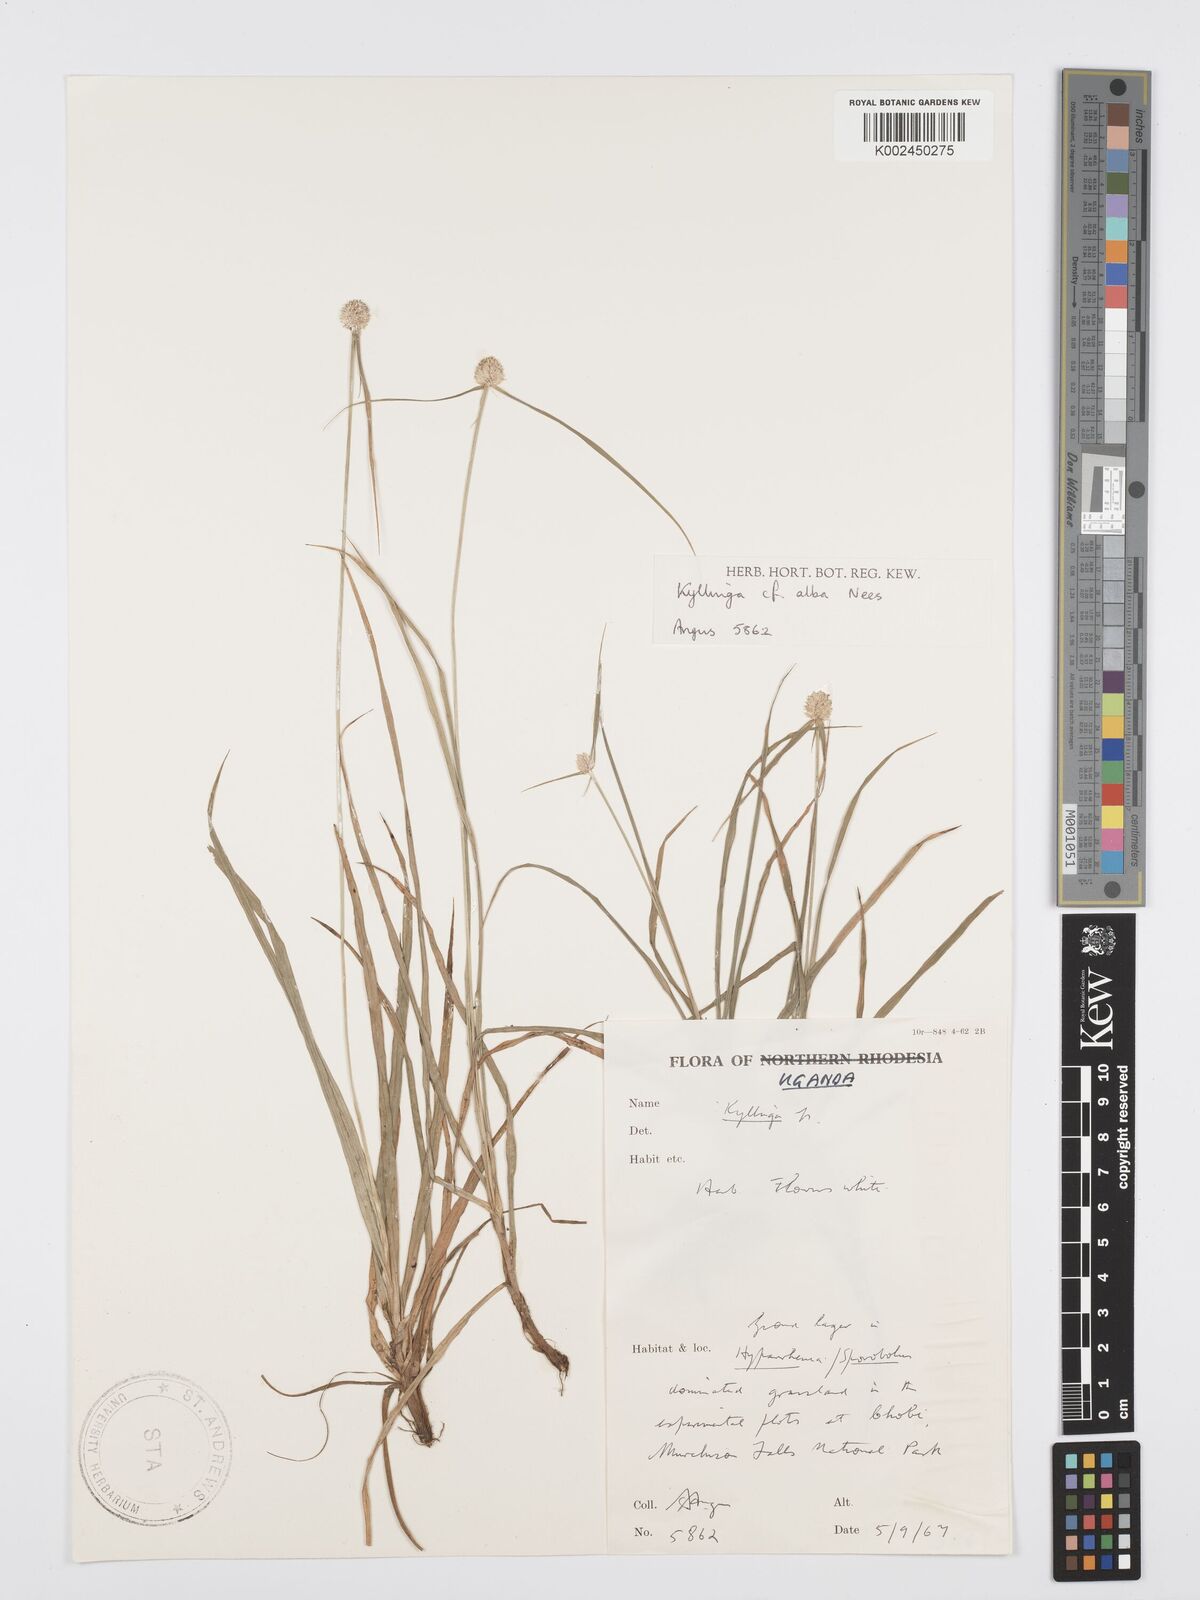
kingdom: Plantae
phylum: Tracheophyta
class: Liliopsida
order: Poales
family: Cyperaceae
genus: Cyperus
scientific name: Cyperus
